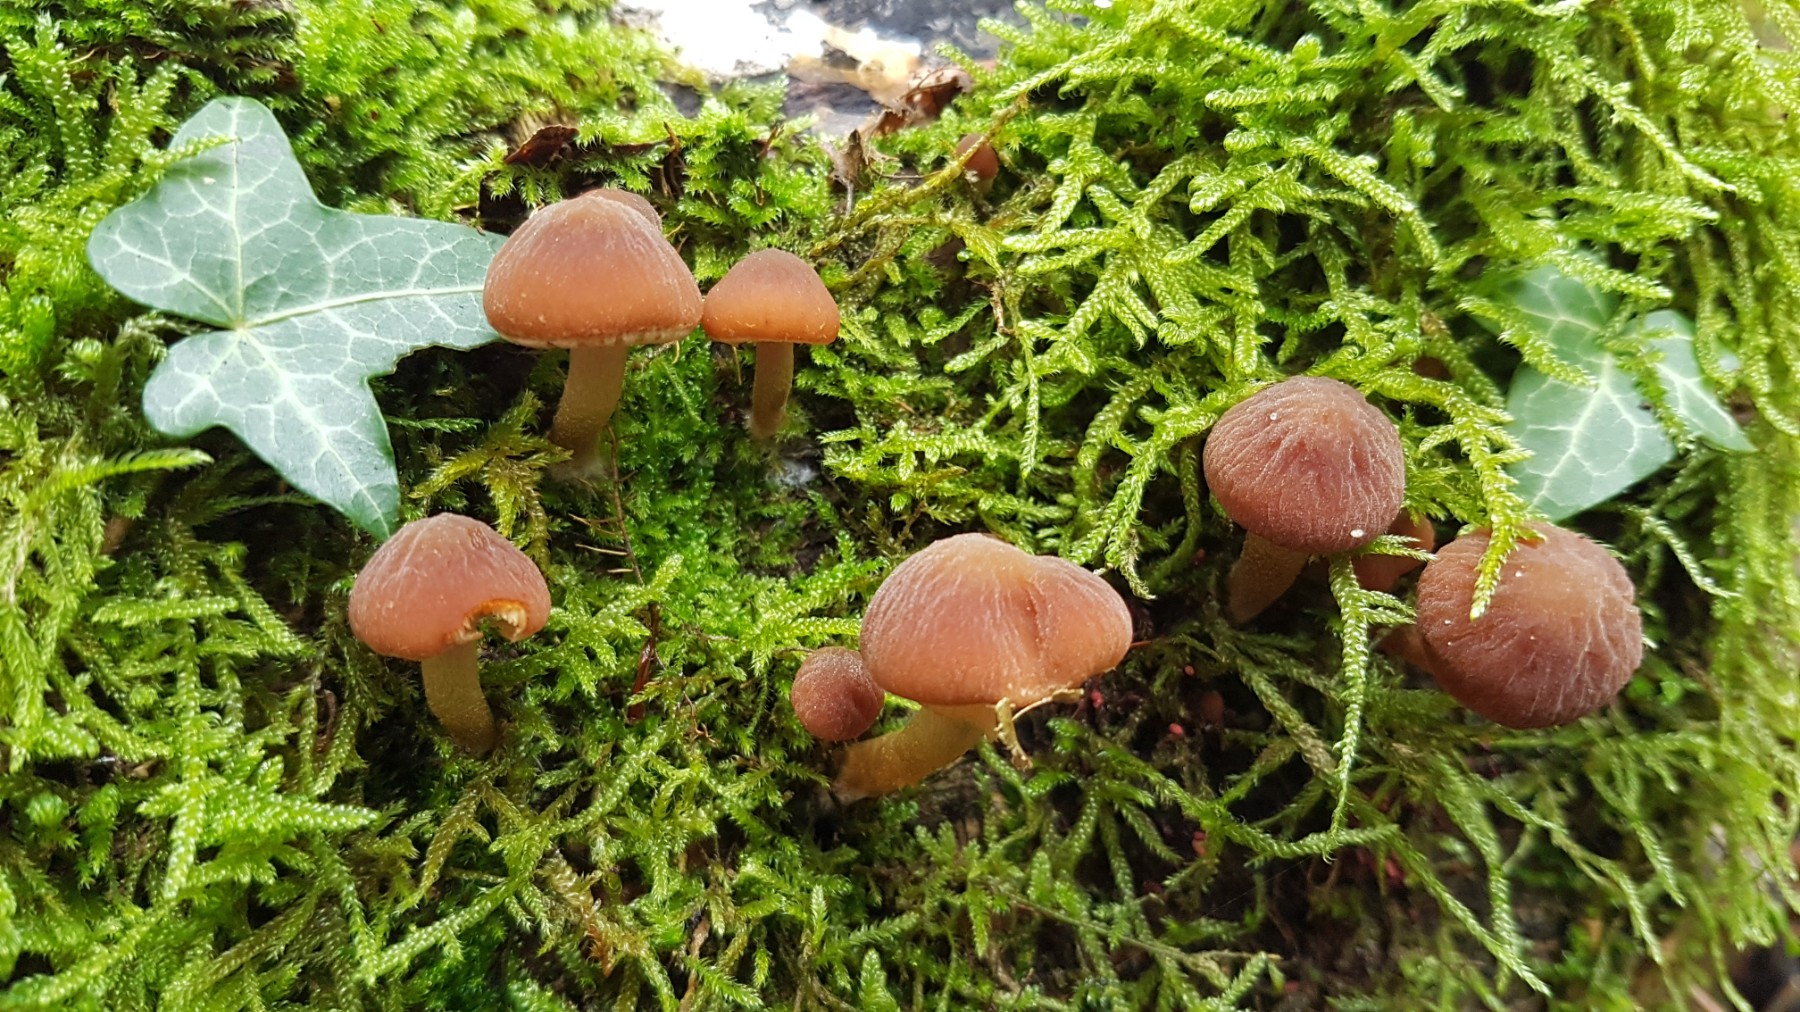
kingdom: Fungi
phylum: Basidiomycota
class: Agaricomycetes
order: Agaricales
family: Psathyrellaceae
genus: Psathyrella
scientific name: Psathyrella piluliformis
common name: lysstokket mørkhat
